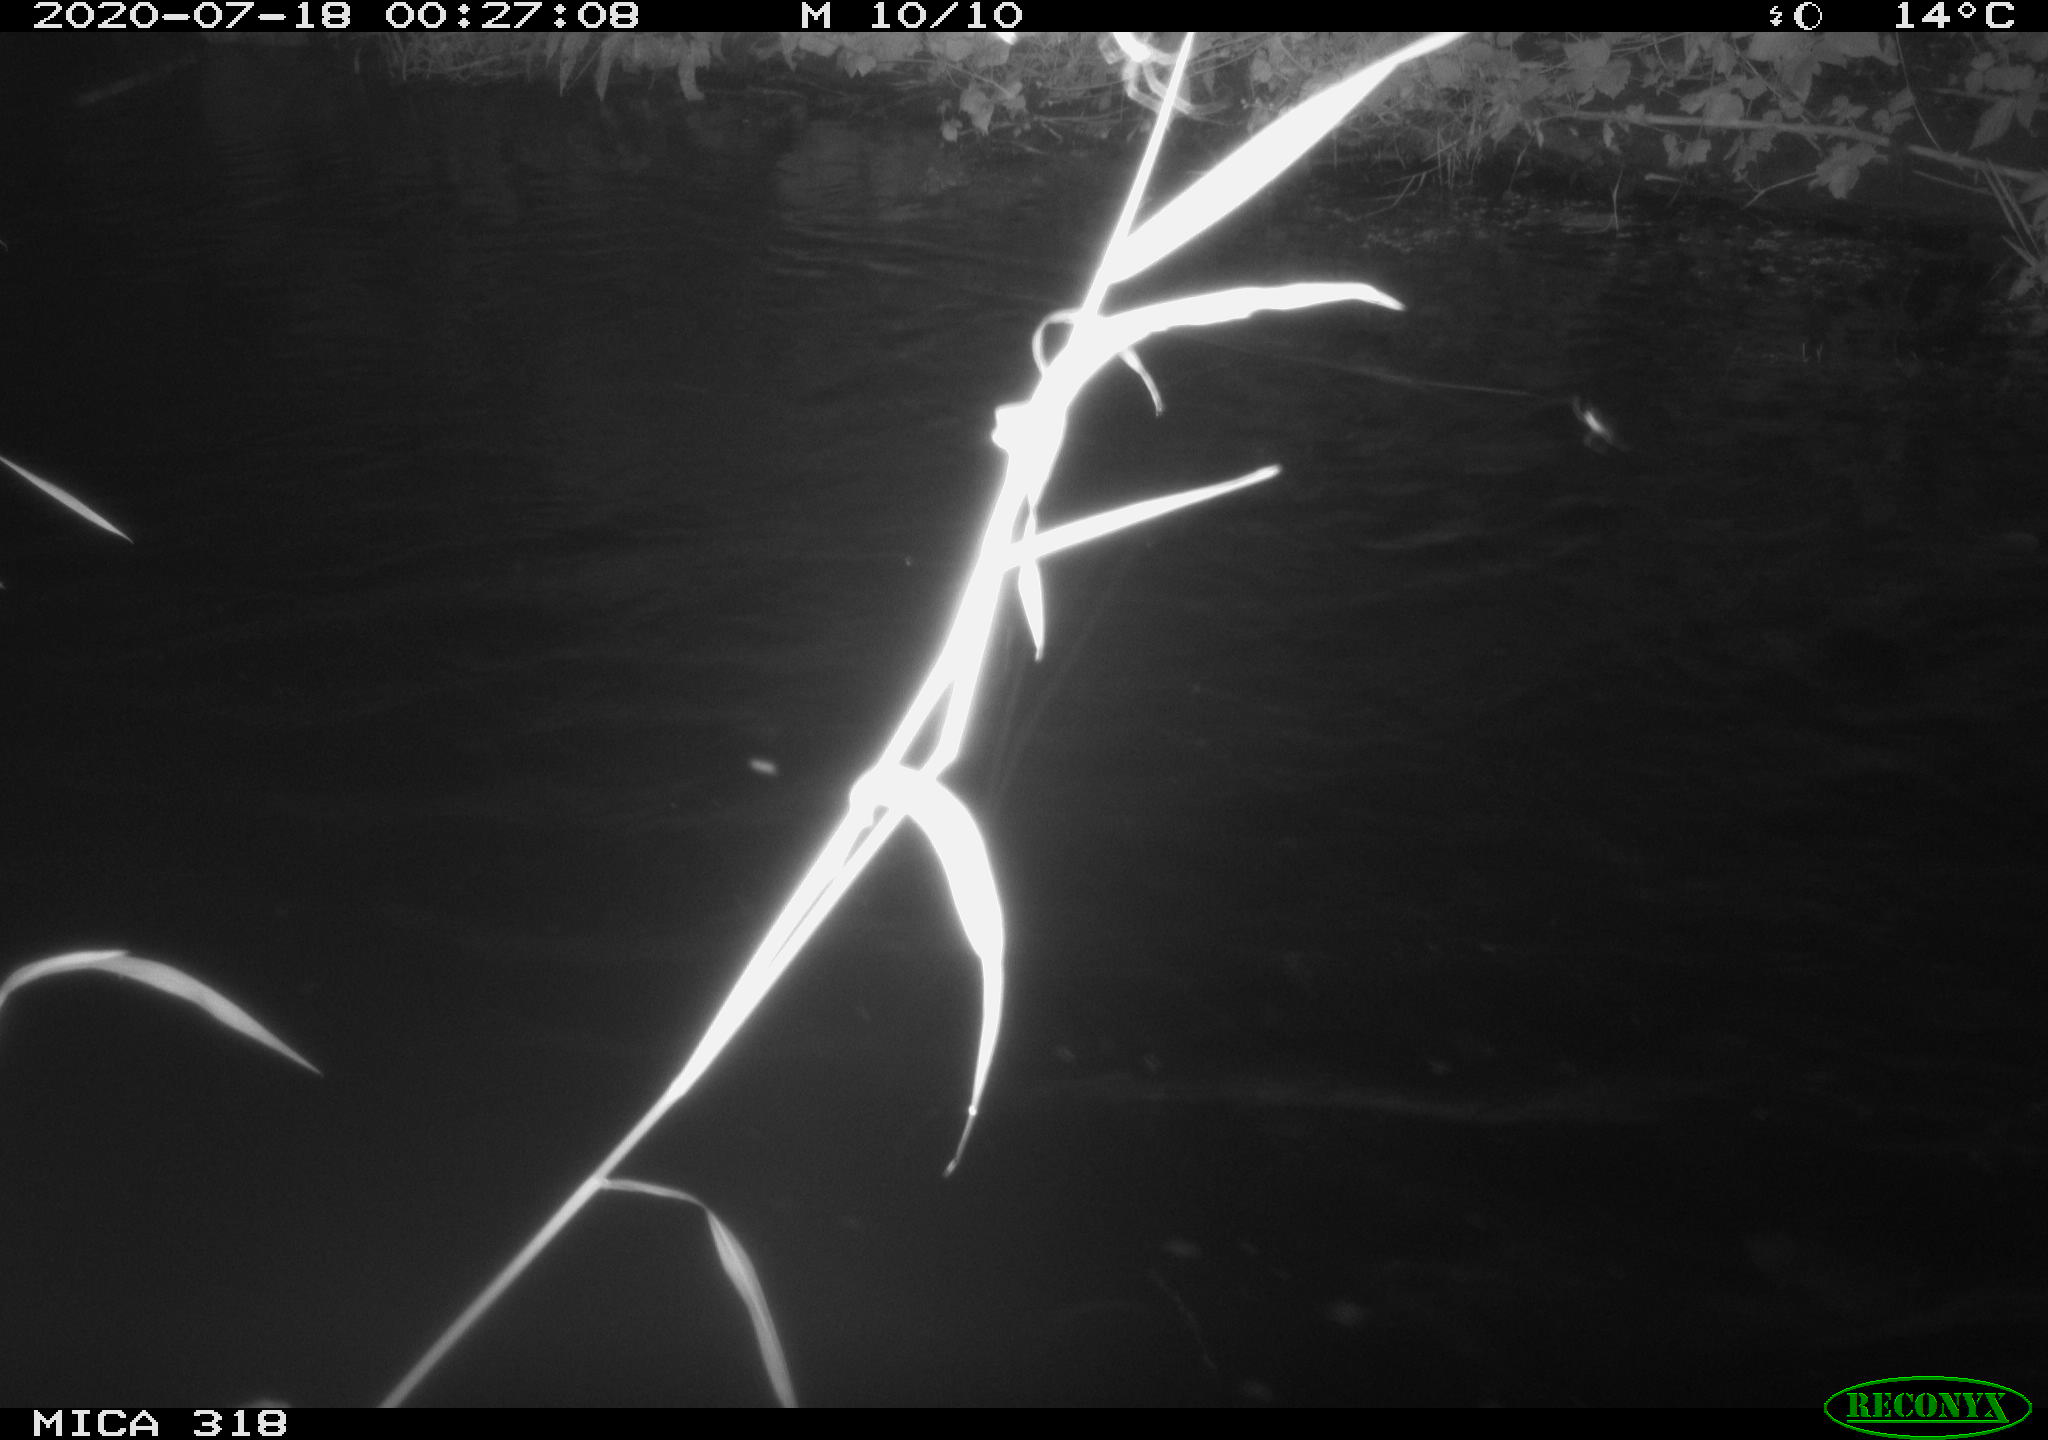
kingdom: Animalia
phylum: Chordata
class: Aves
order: Anseriformes
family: Anatidae
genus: Anas
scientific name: Anas platyrhynchos
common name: Mallard
